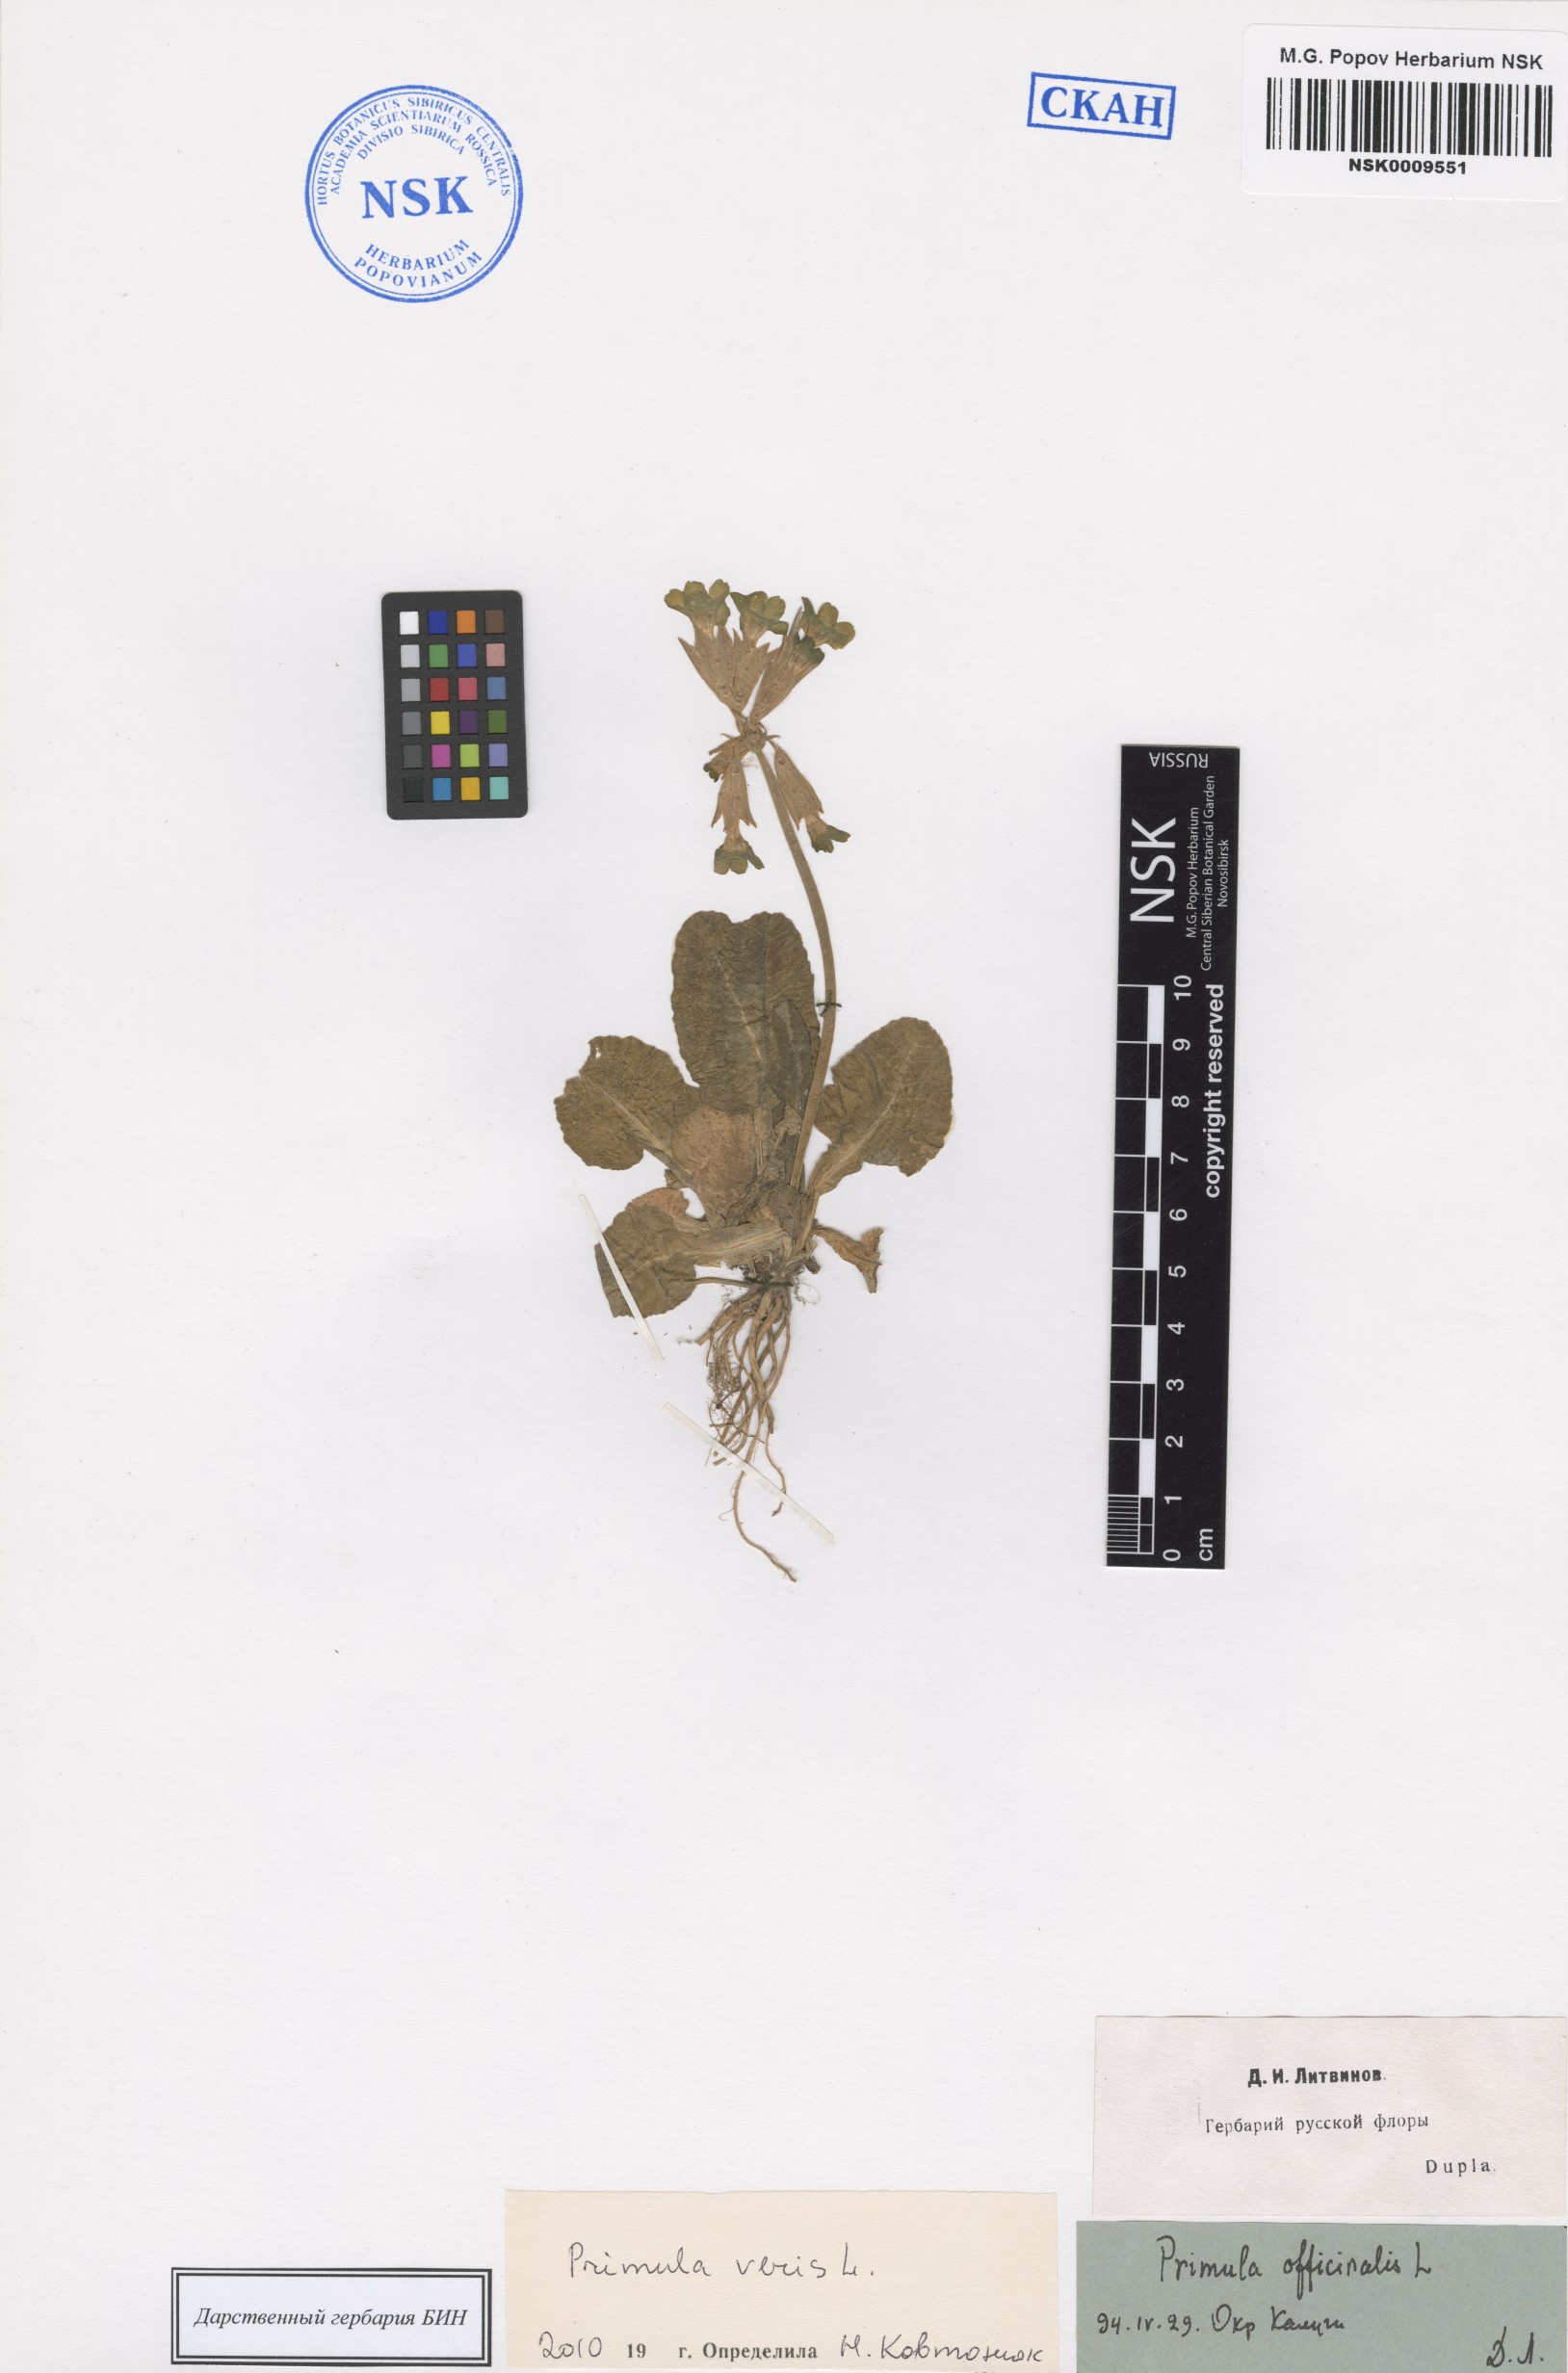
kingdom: Plantae
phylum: Tracheophyta
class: Magnoliopsida
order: Ericales
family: Primulaceae
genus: Primula
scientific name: Primula veris
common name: Cowslip
